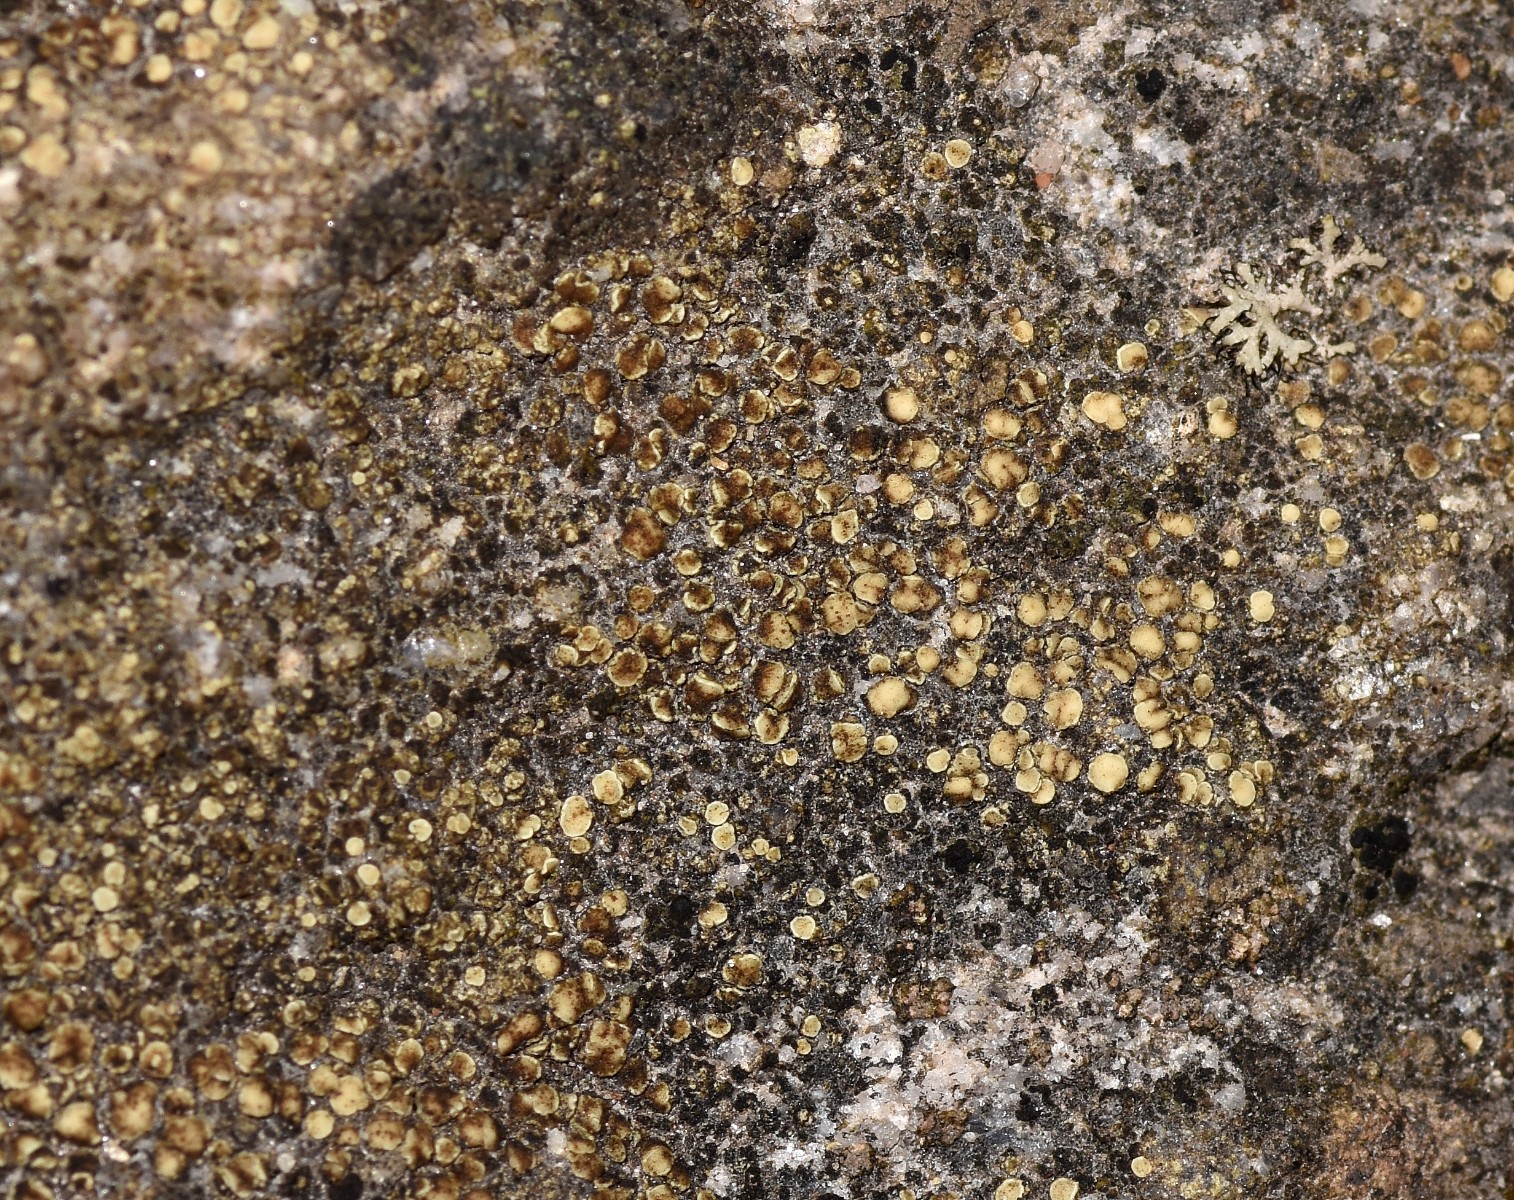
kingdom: Fungi
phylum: Ascomycota
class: Lecanoromycetes
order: Lecanorales
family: Lecanoraceae
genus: Lecanora
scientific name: Lecanora polytropa
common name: bleggrøn kantskivelav
